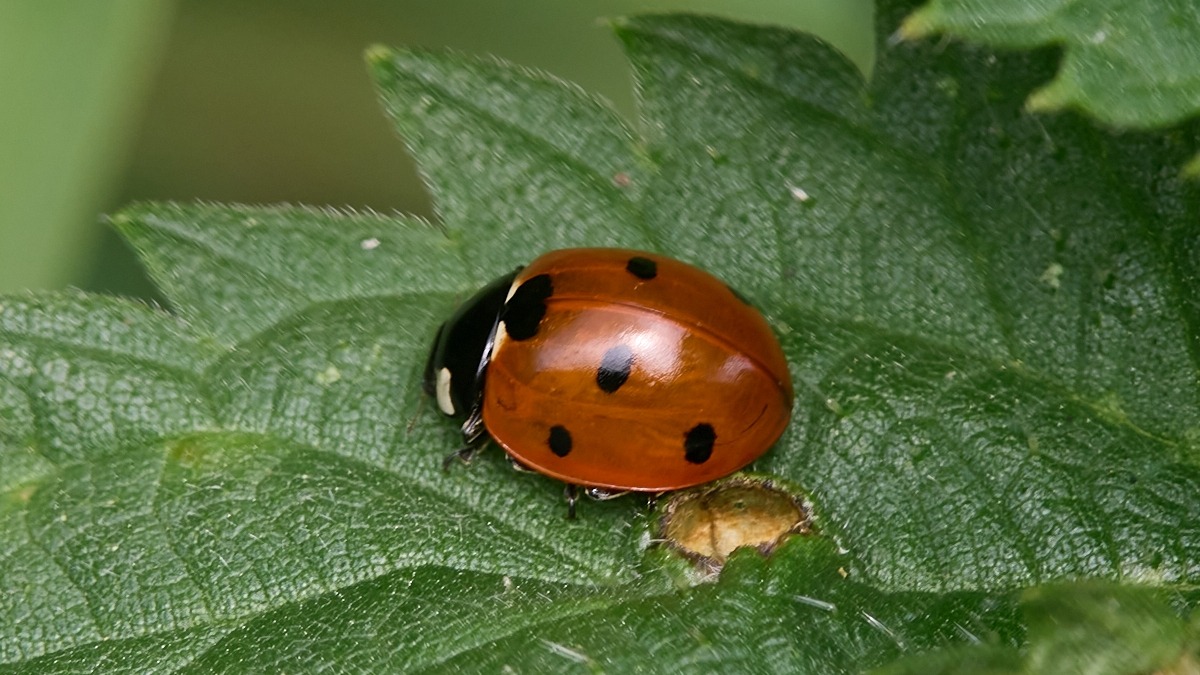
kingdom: Animalia
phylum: Arthropoda
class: Insecta
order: Coleoptera
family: Coccinellidae
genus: Coccinella
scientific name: Coccinella septempunctata
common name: Syvplettet mariehøne
